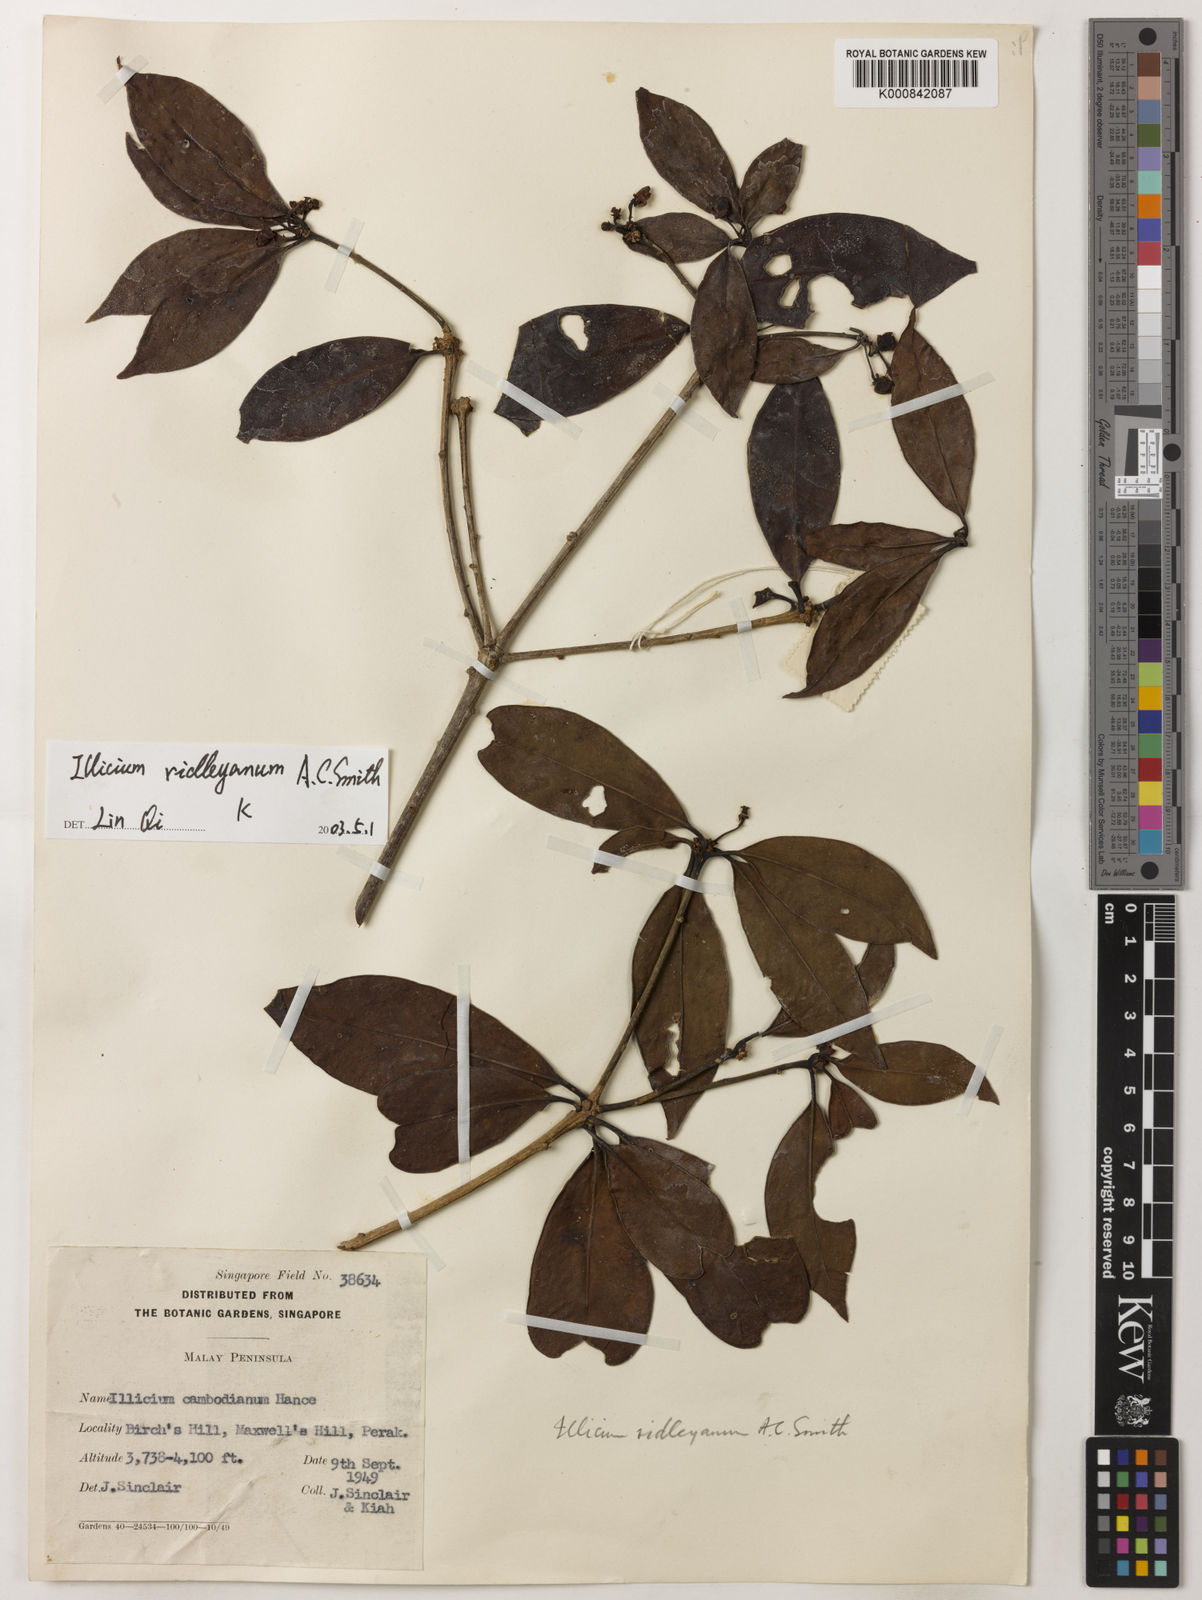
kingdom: Plantae
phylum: Tracheophyta
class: Magnoliopsida
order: Austrobaileyales
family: Schisandraceae
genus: Illicium
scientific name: Illicium ridleyanum
